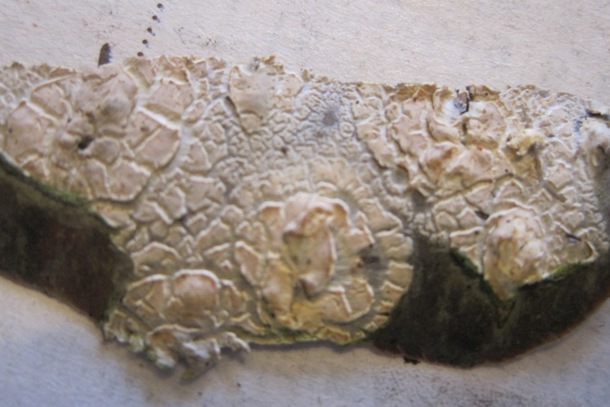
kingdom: Fungi
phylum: Basidiomycota
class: Agaricomycetes
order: Agaricales
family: Physalacriaceae
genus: Cylindrobasidium
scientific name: Cylindrobasidium evolvens
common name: sprækkehinde
